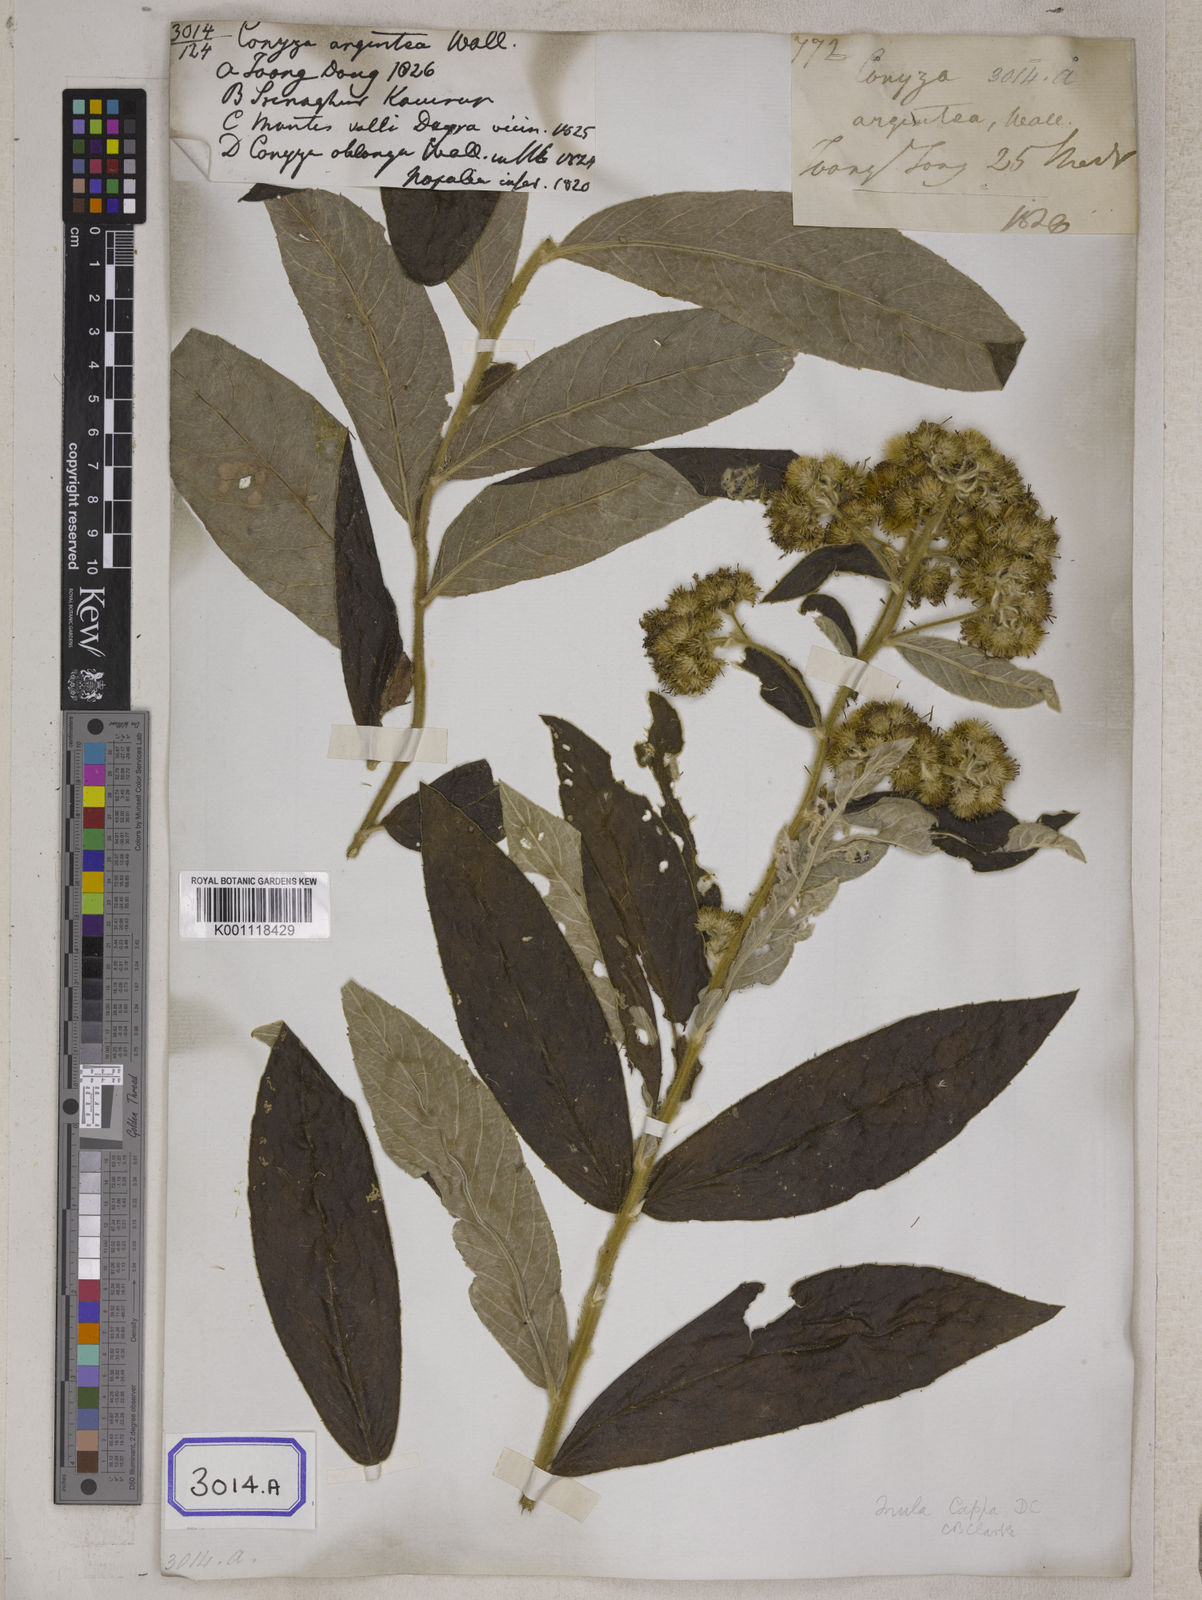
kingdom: Plantae
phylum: Tracheophyta
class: Magnoliopsida
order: Asterales
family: Asteraceae
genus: Duhaldea
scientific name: Duhaldea cappa
